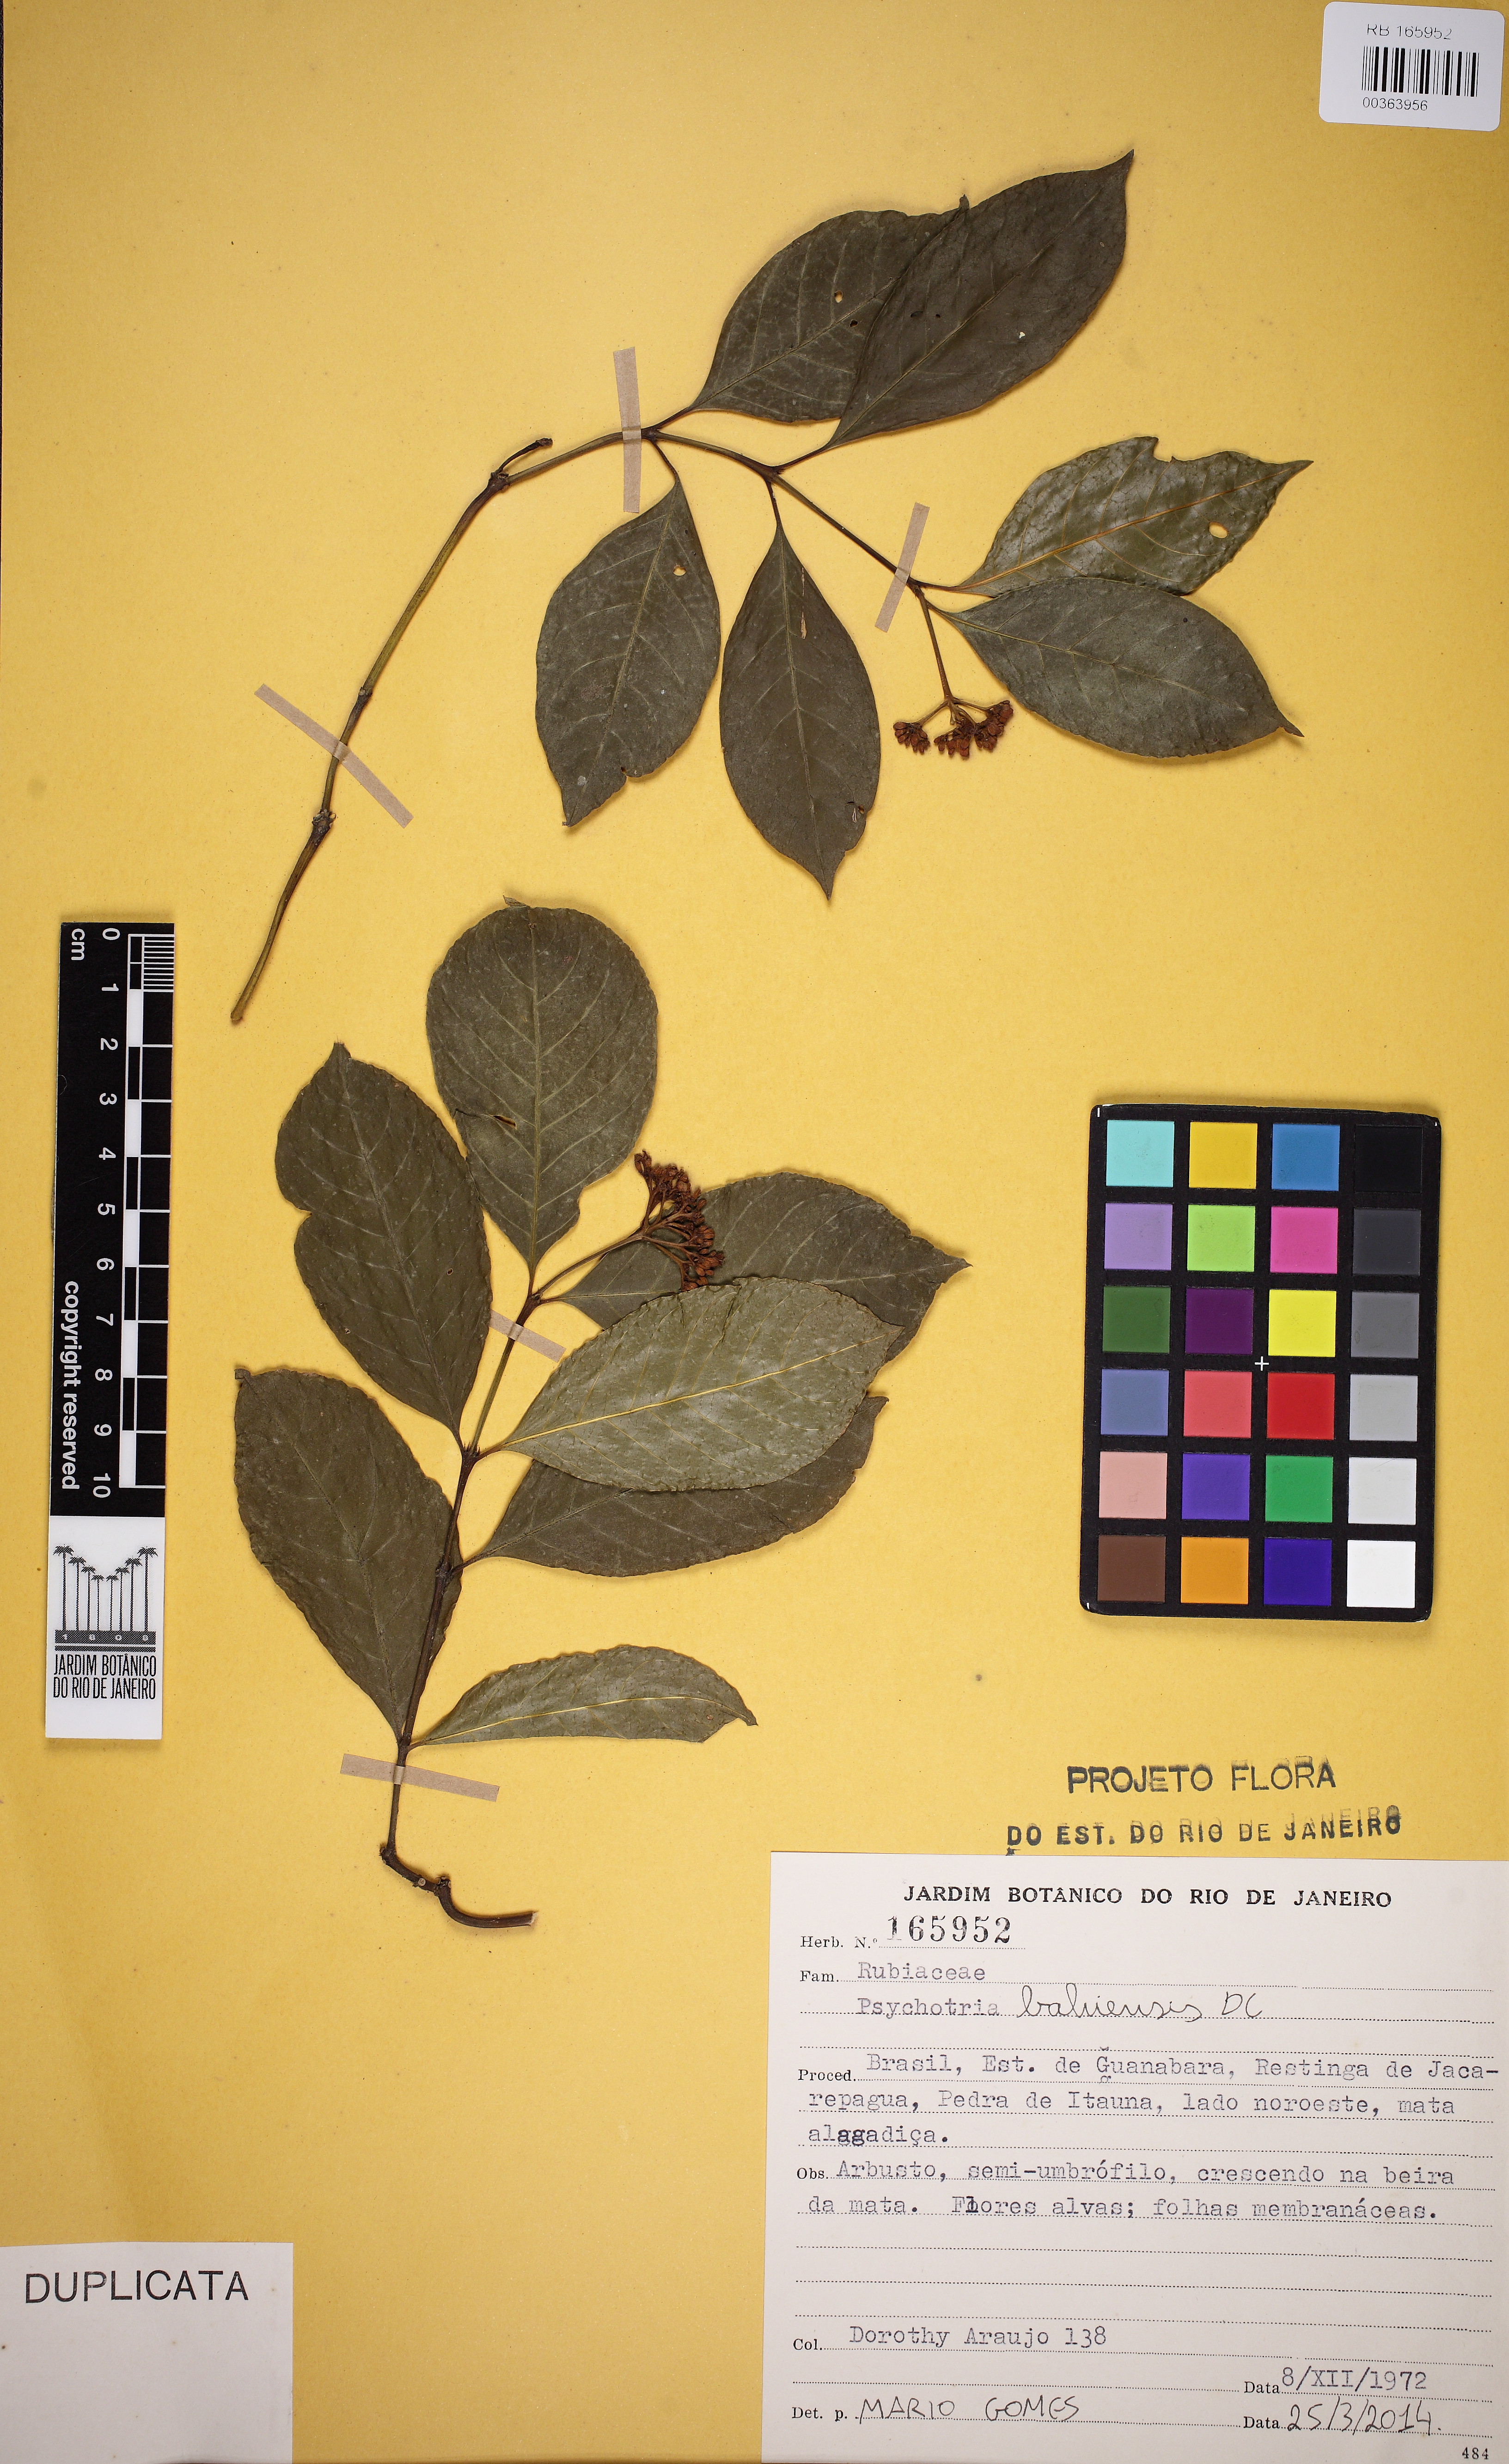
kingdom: Plantae
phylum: Tracheophyta
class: Magnoliopsida
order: Gentianales
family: Rubiaceae
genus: Psychotria
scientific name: Psychotria bahiensis
